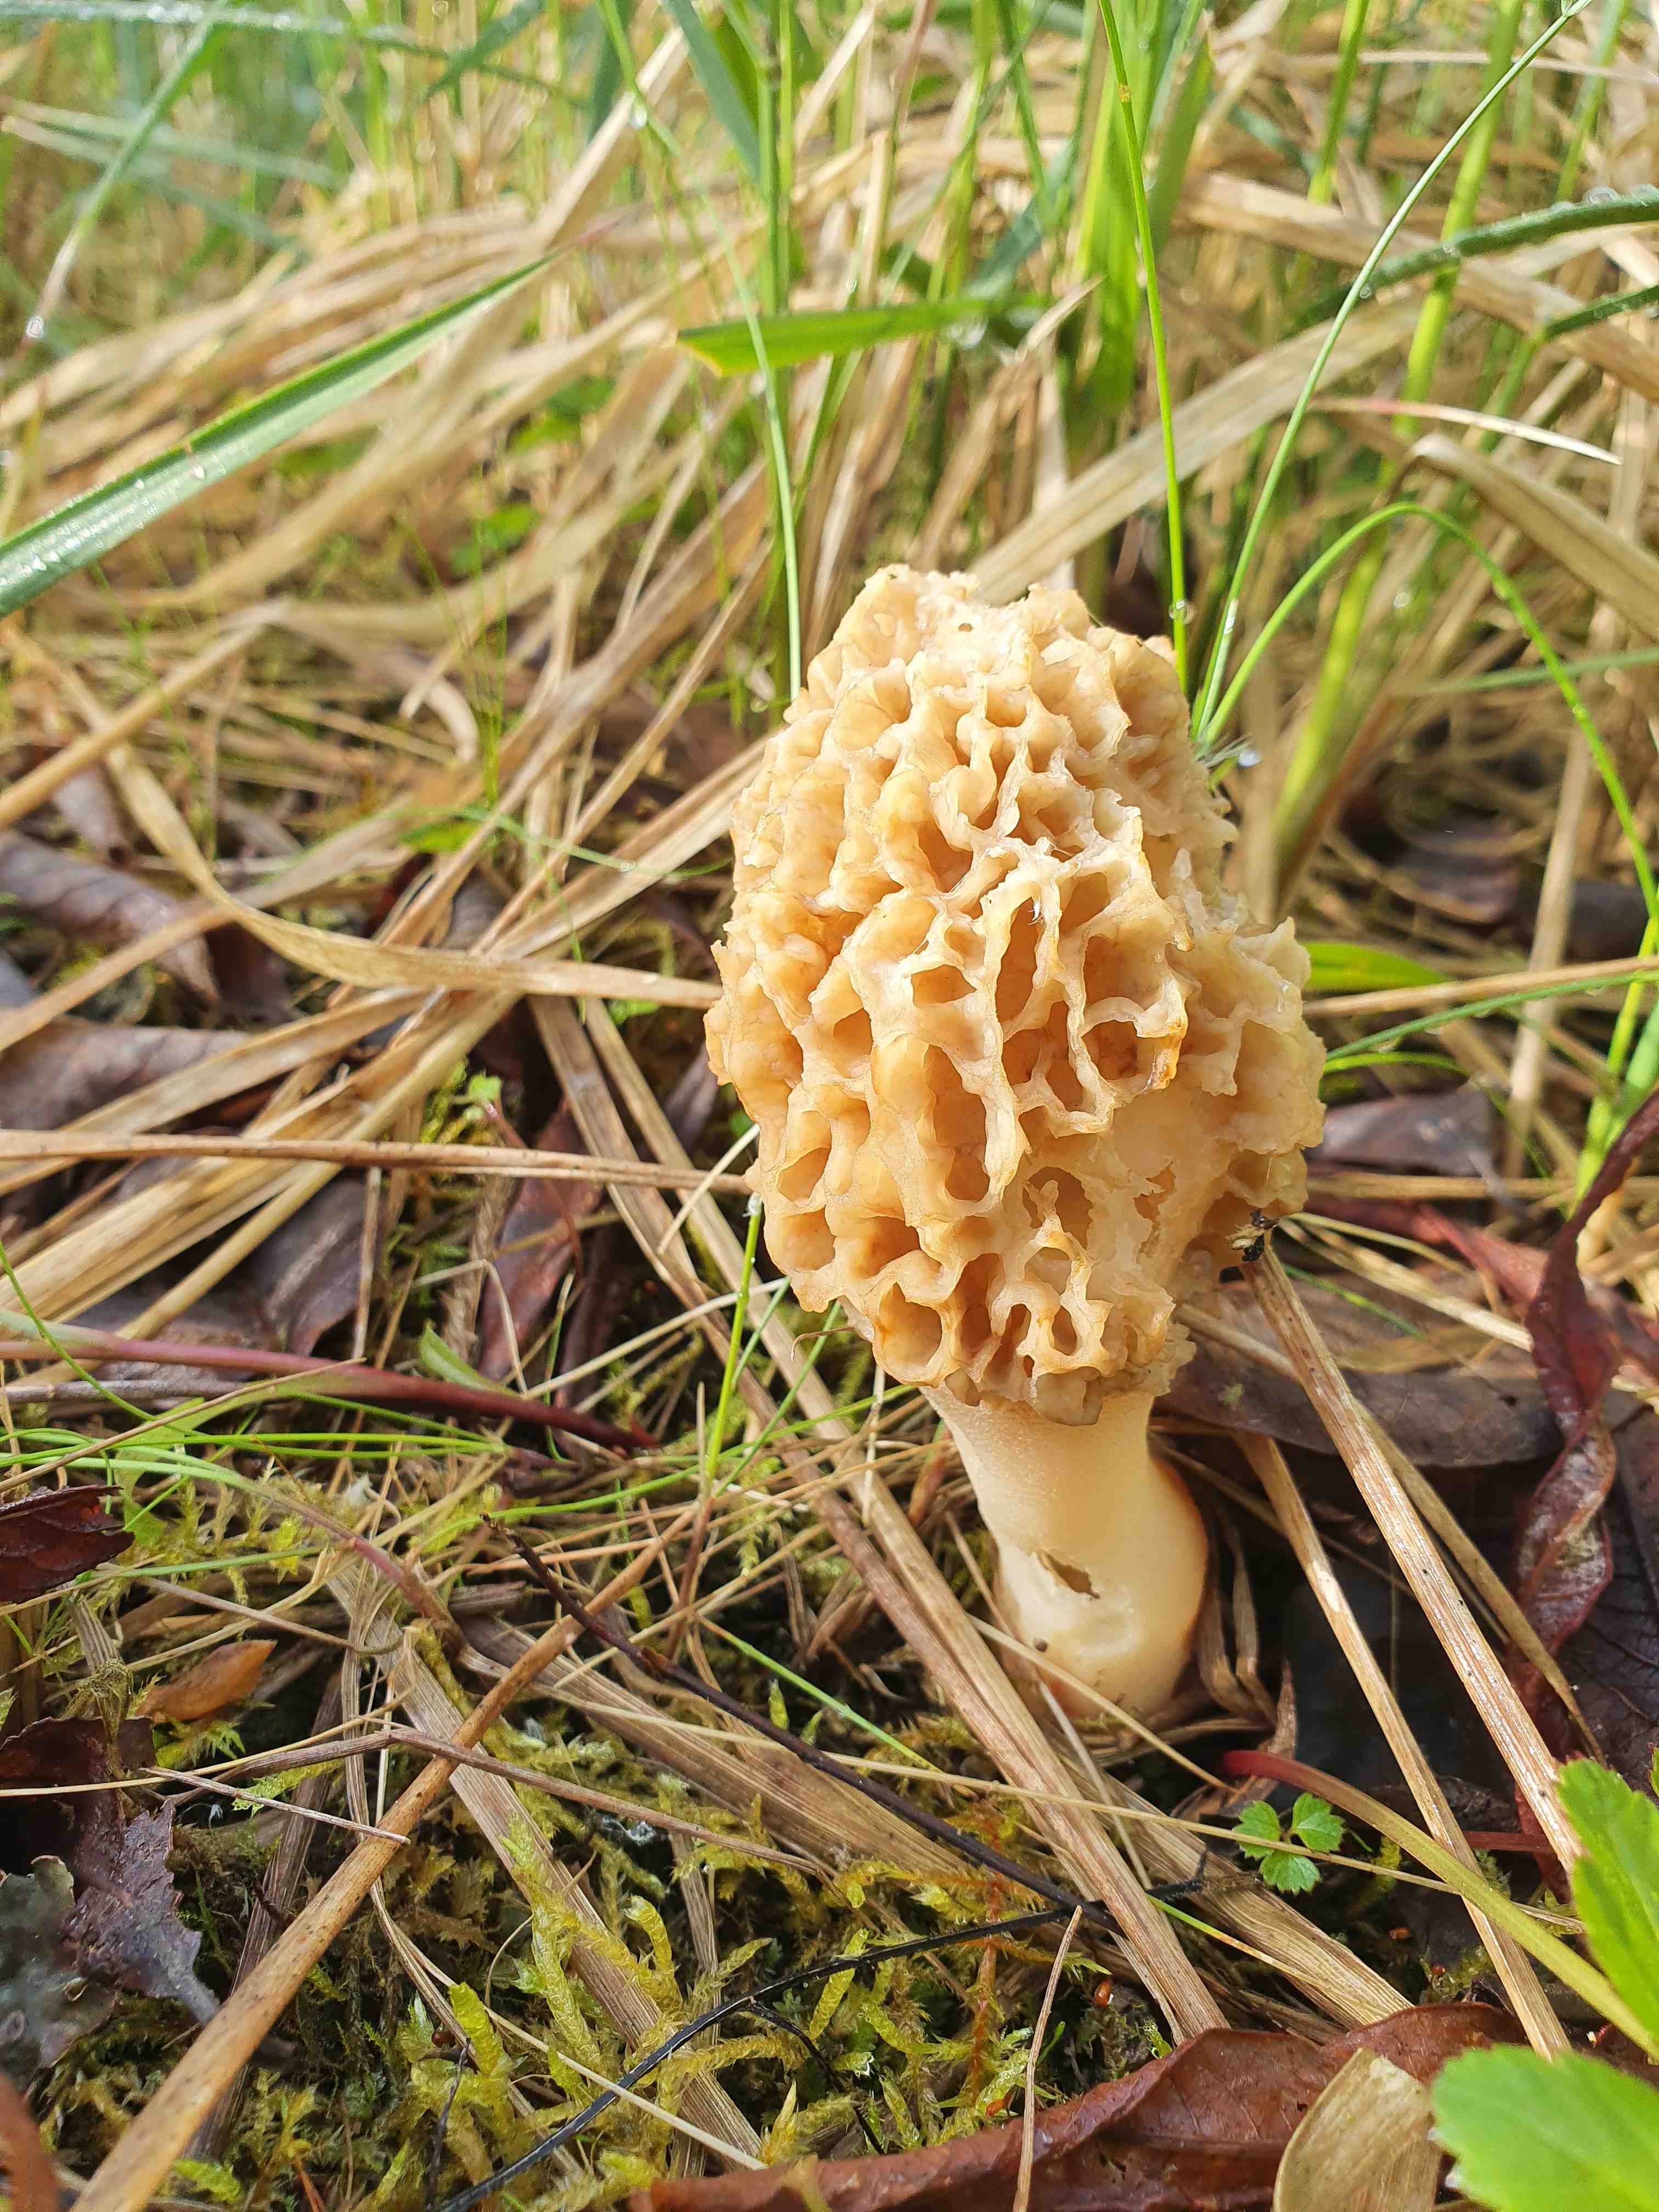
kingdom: Fungi
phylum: Ascomycota
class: Pezizomycetes
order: Pezizales
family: Morchellaceae
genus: Morchella
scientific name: Morchella
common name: morkel
